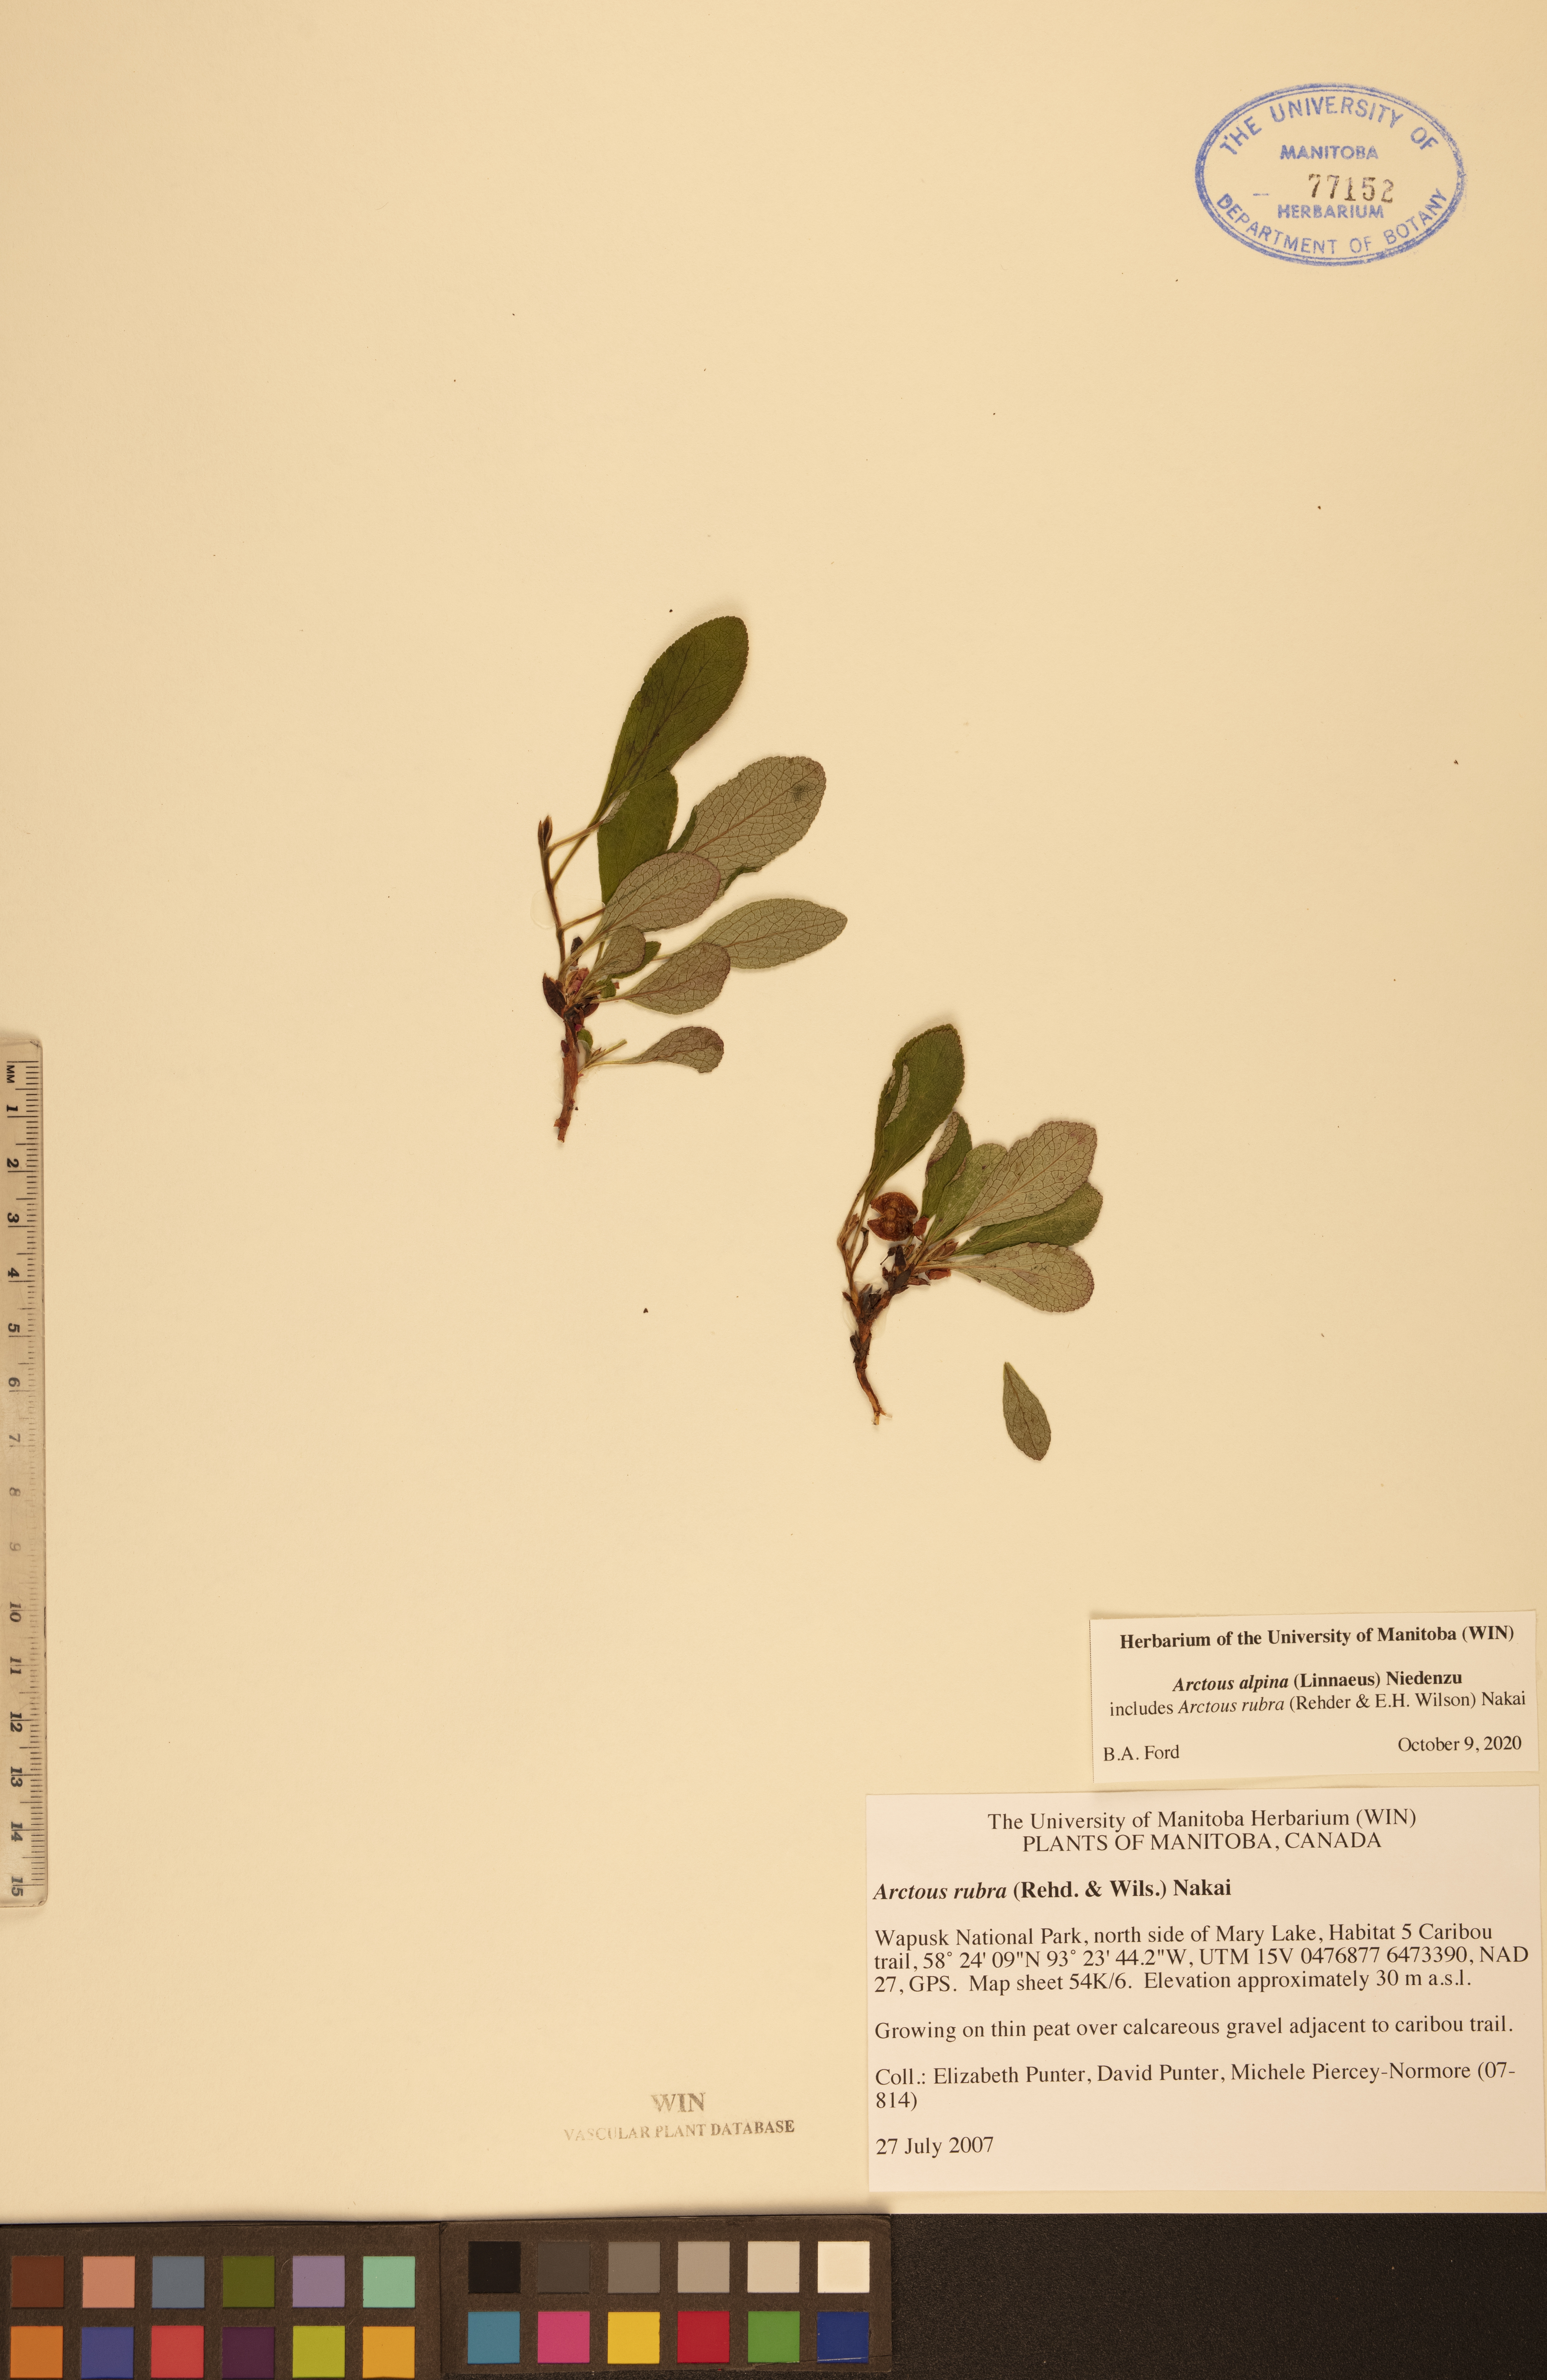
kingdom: Plantae
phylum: Tracheophyta
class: Magnoliopsida
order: Ericales
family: Ericaceae
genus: Arctostaphylos
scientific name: Arctostaphylos alpinus
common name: Alpine bearberry
